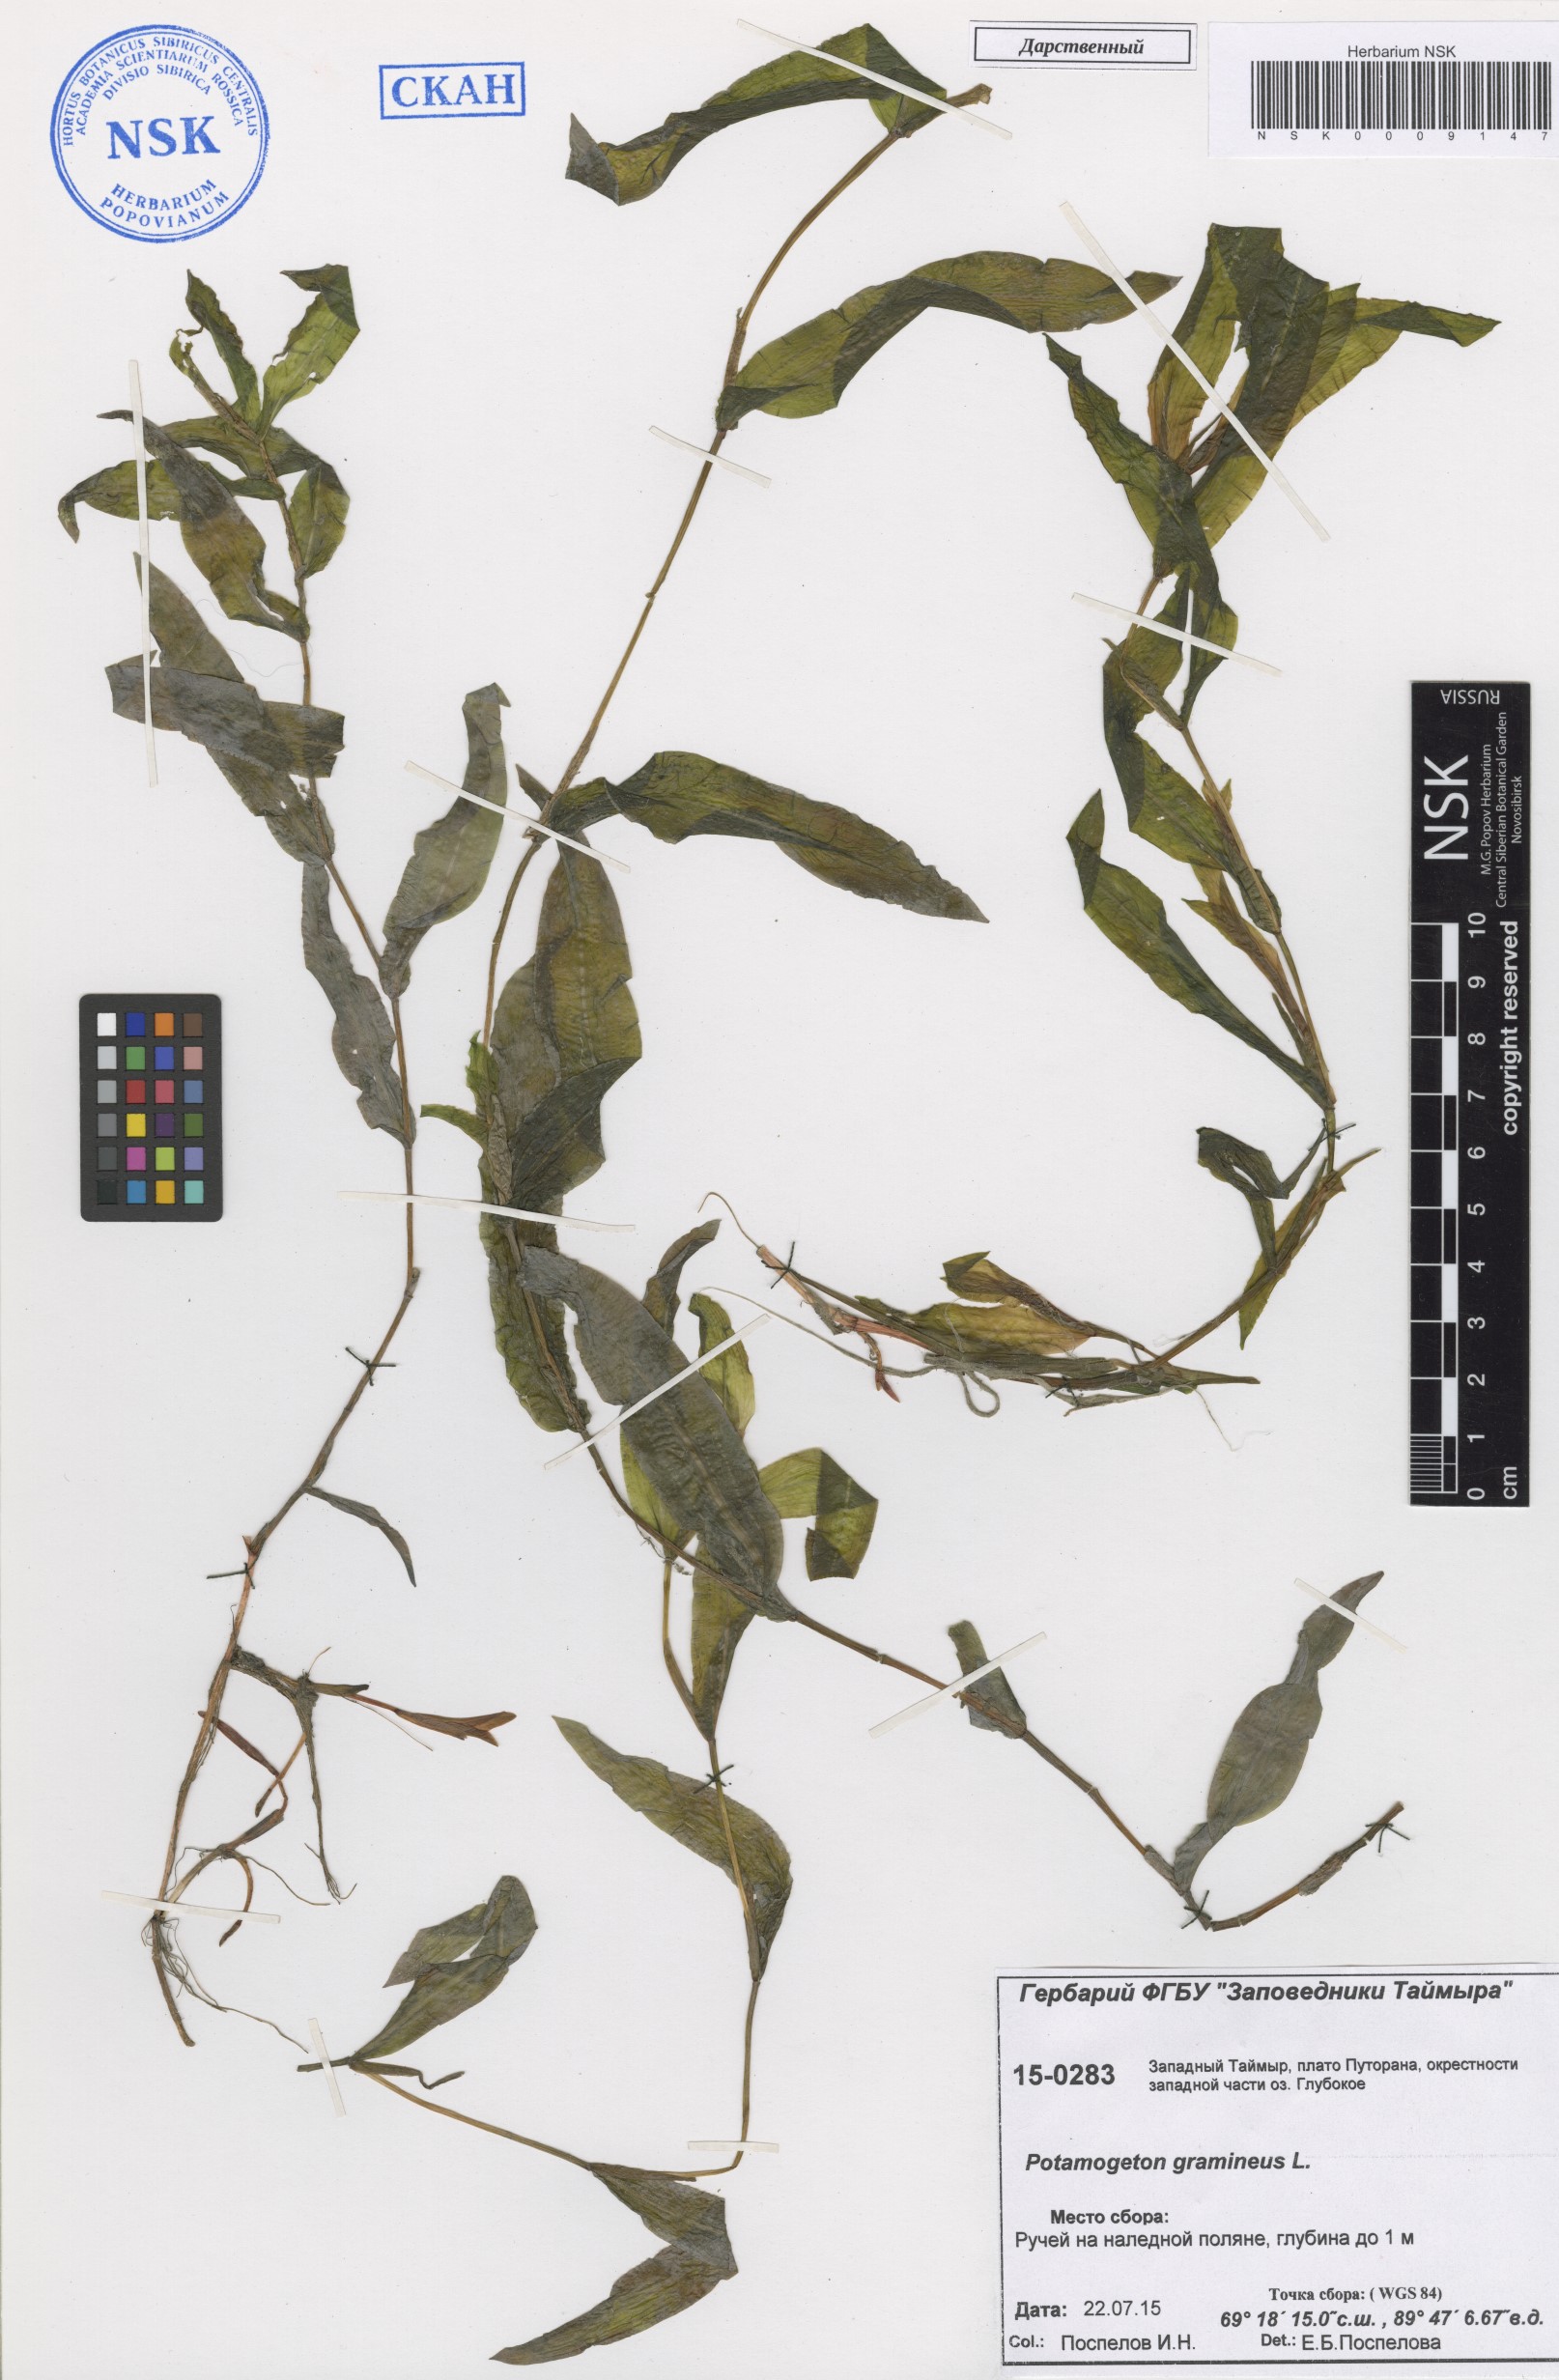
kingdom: Plantae
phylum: Tracheophyta
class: Liliopsida
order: Alismatales
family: Potamogetonaceae
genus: Potamogeton
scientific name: Potamogeton gramineus
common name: Various-leaved pondweed
